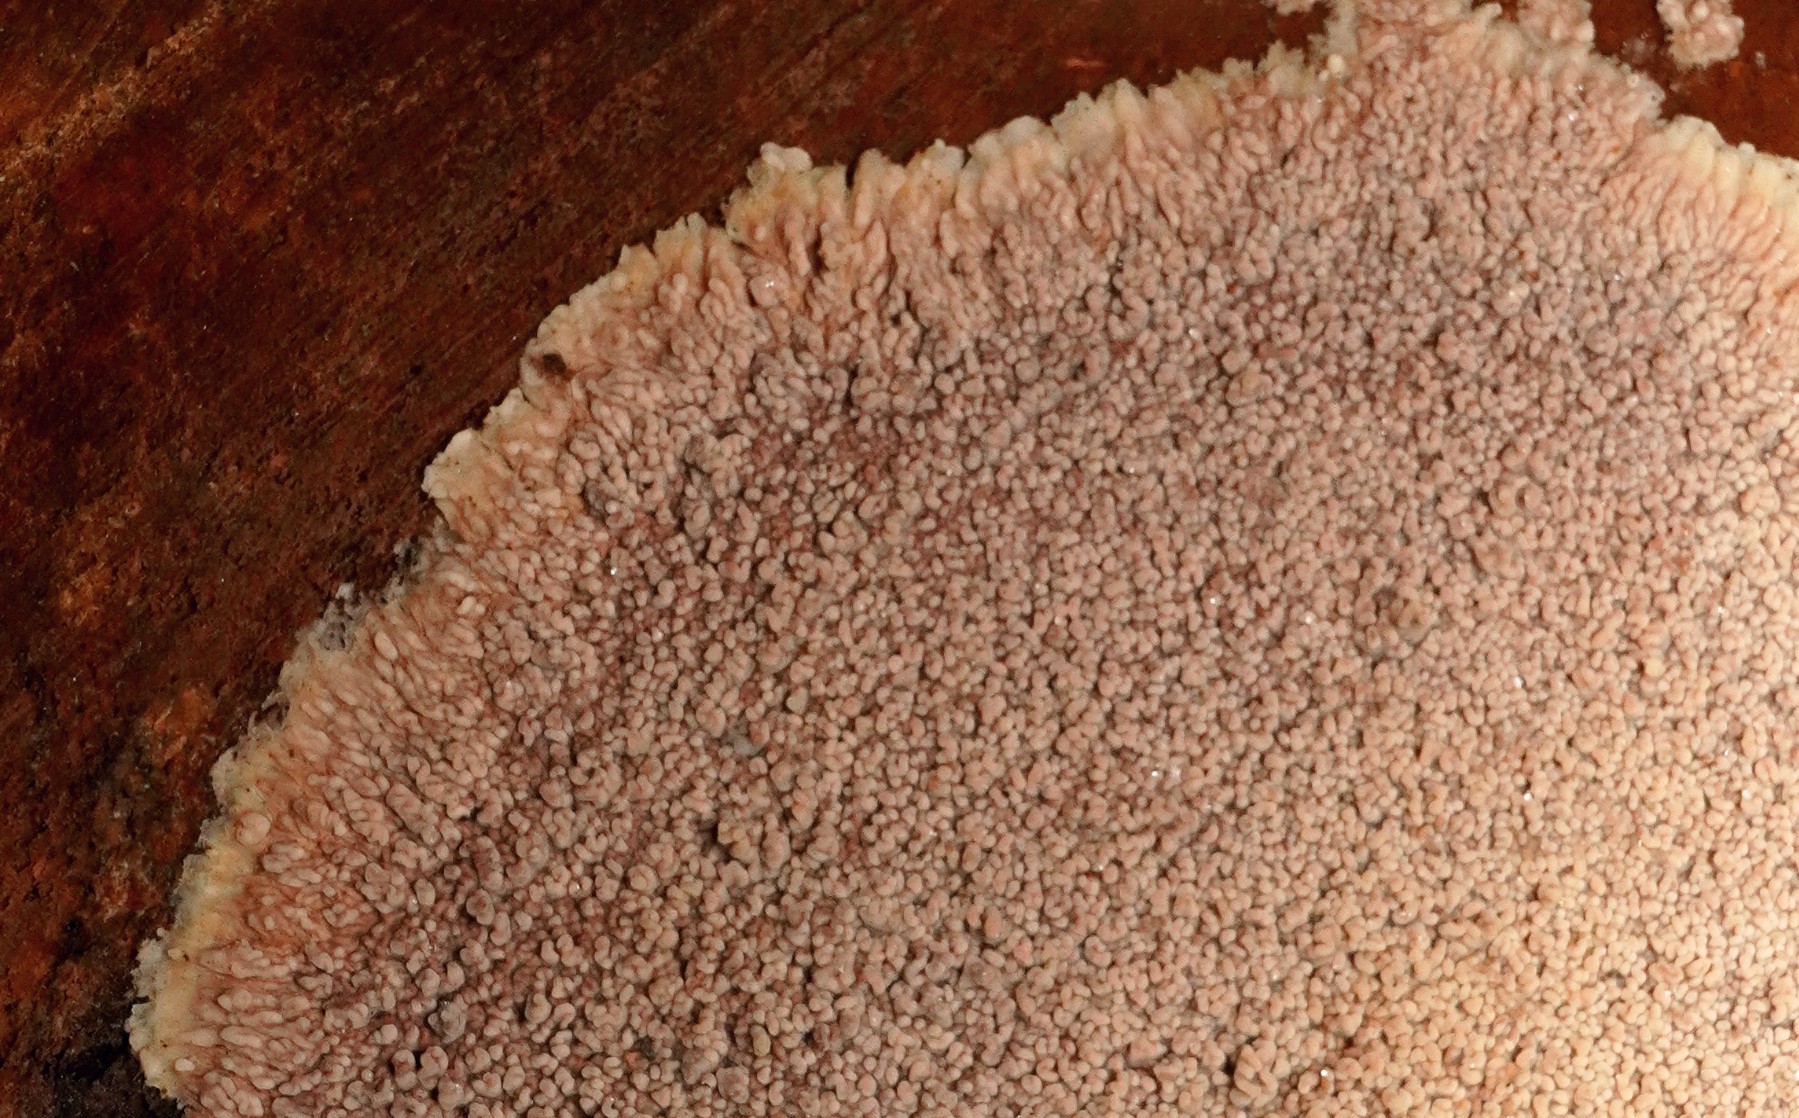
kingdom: Fungi
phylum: Basidiomycota
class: Agaricomycetes
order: Polyporales
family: Meruliaceae
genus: Phlebia
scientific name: Phlebia radiata
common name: stråle-åresvamp
